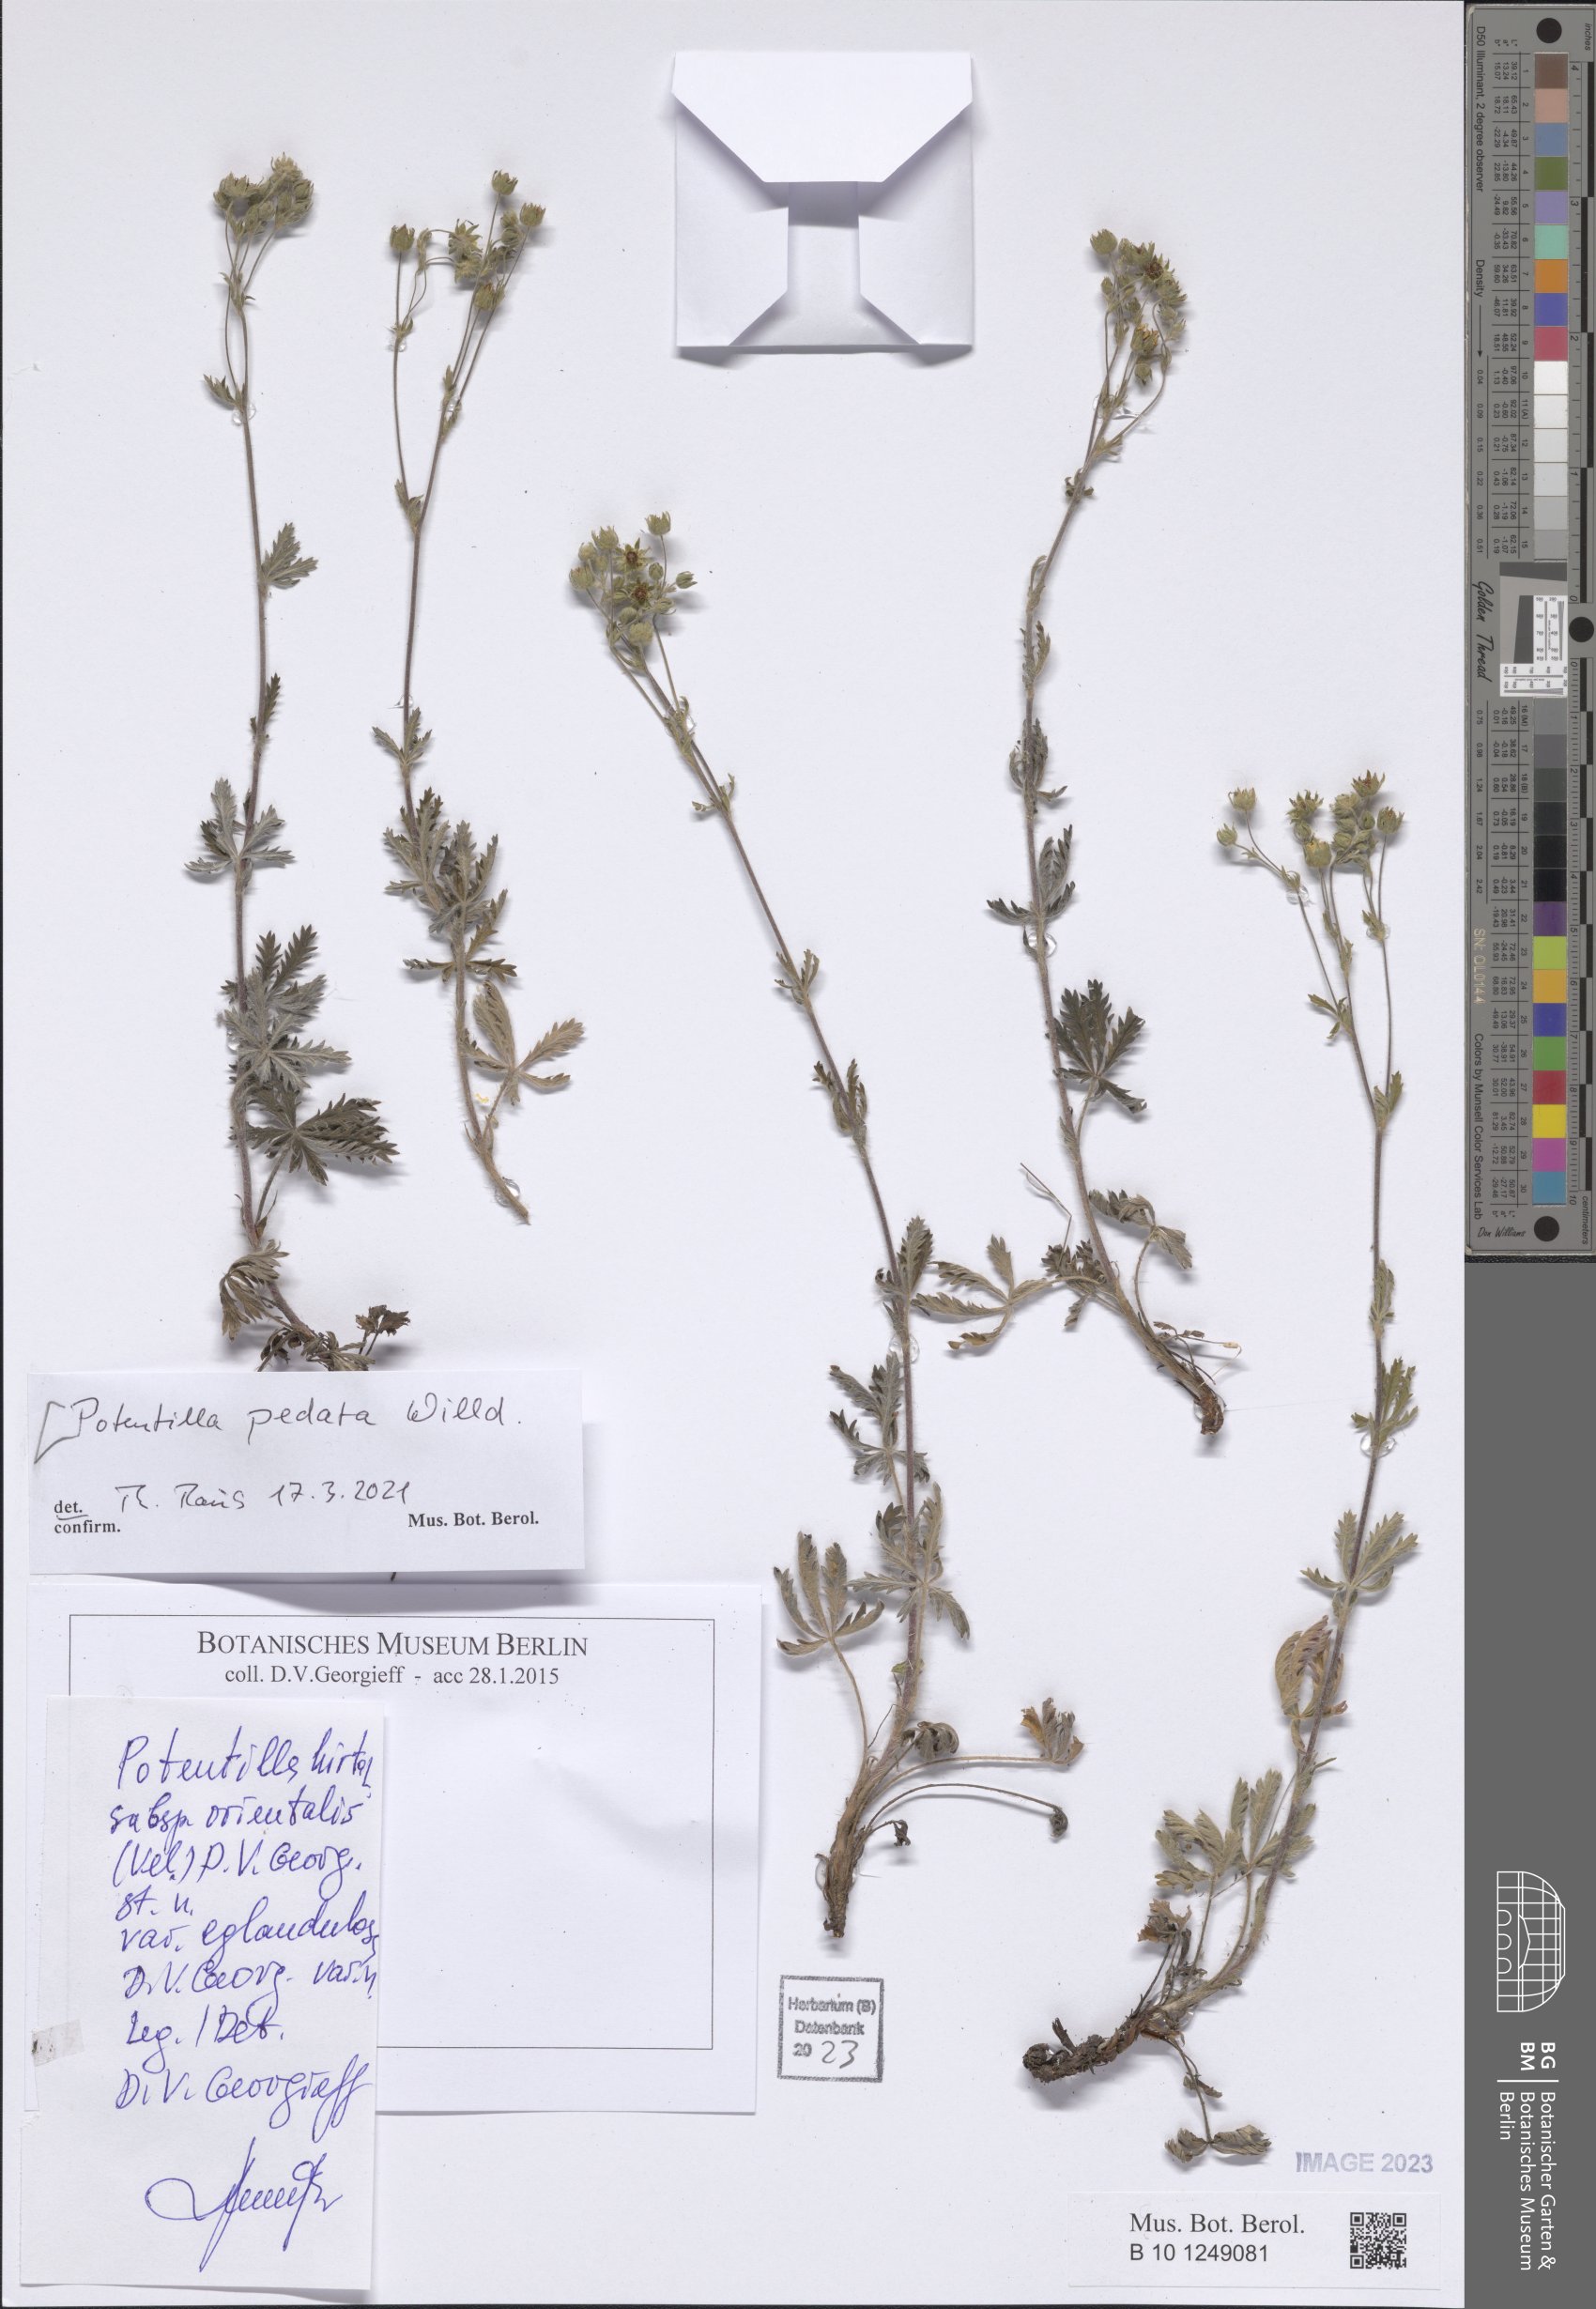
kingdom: Plantae
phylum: Tracheophyta
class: Magnoliopsida
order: Rosales
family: Rosaceae
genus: Potentilla
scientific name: Potentilla pedata
